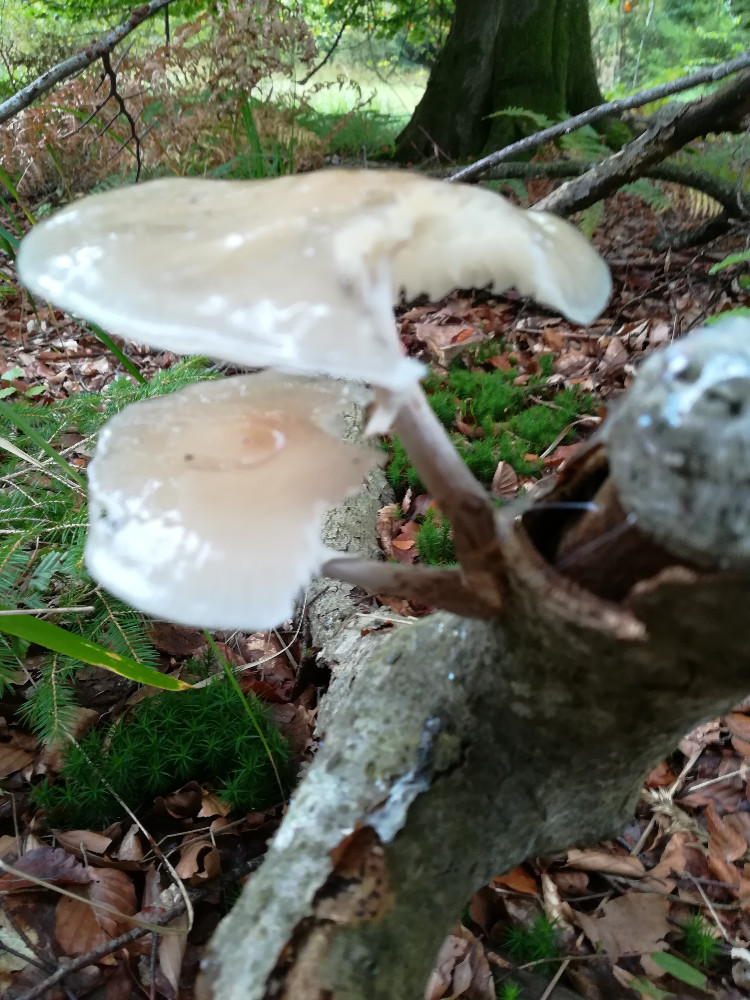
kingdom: Fungi
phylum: Basidiomycota
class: Agaricomycetes
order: Agaricales
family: Physalacriaceae
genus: Mucidula
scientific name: Mucidula mucida
